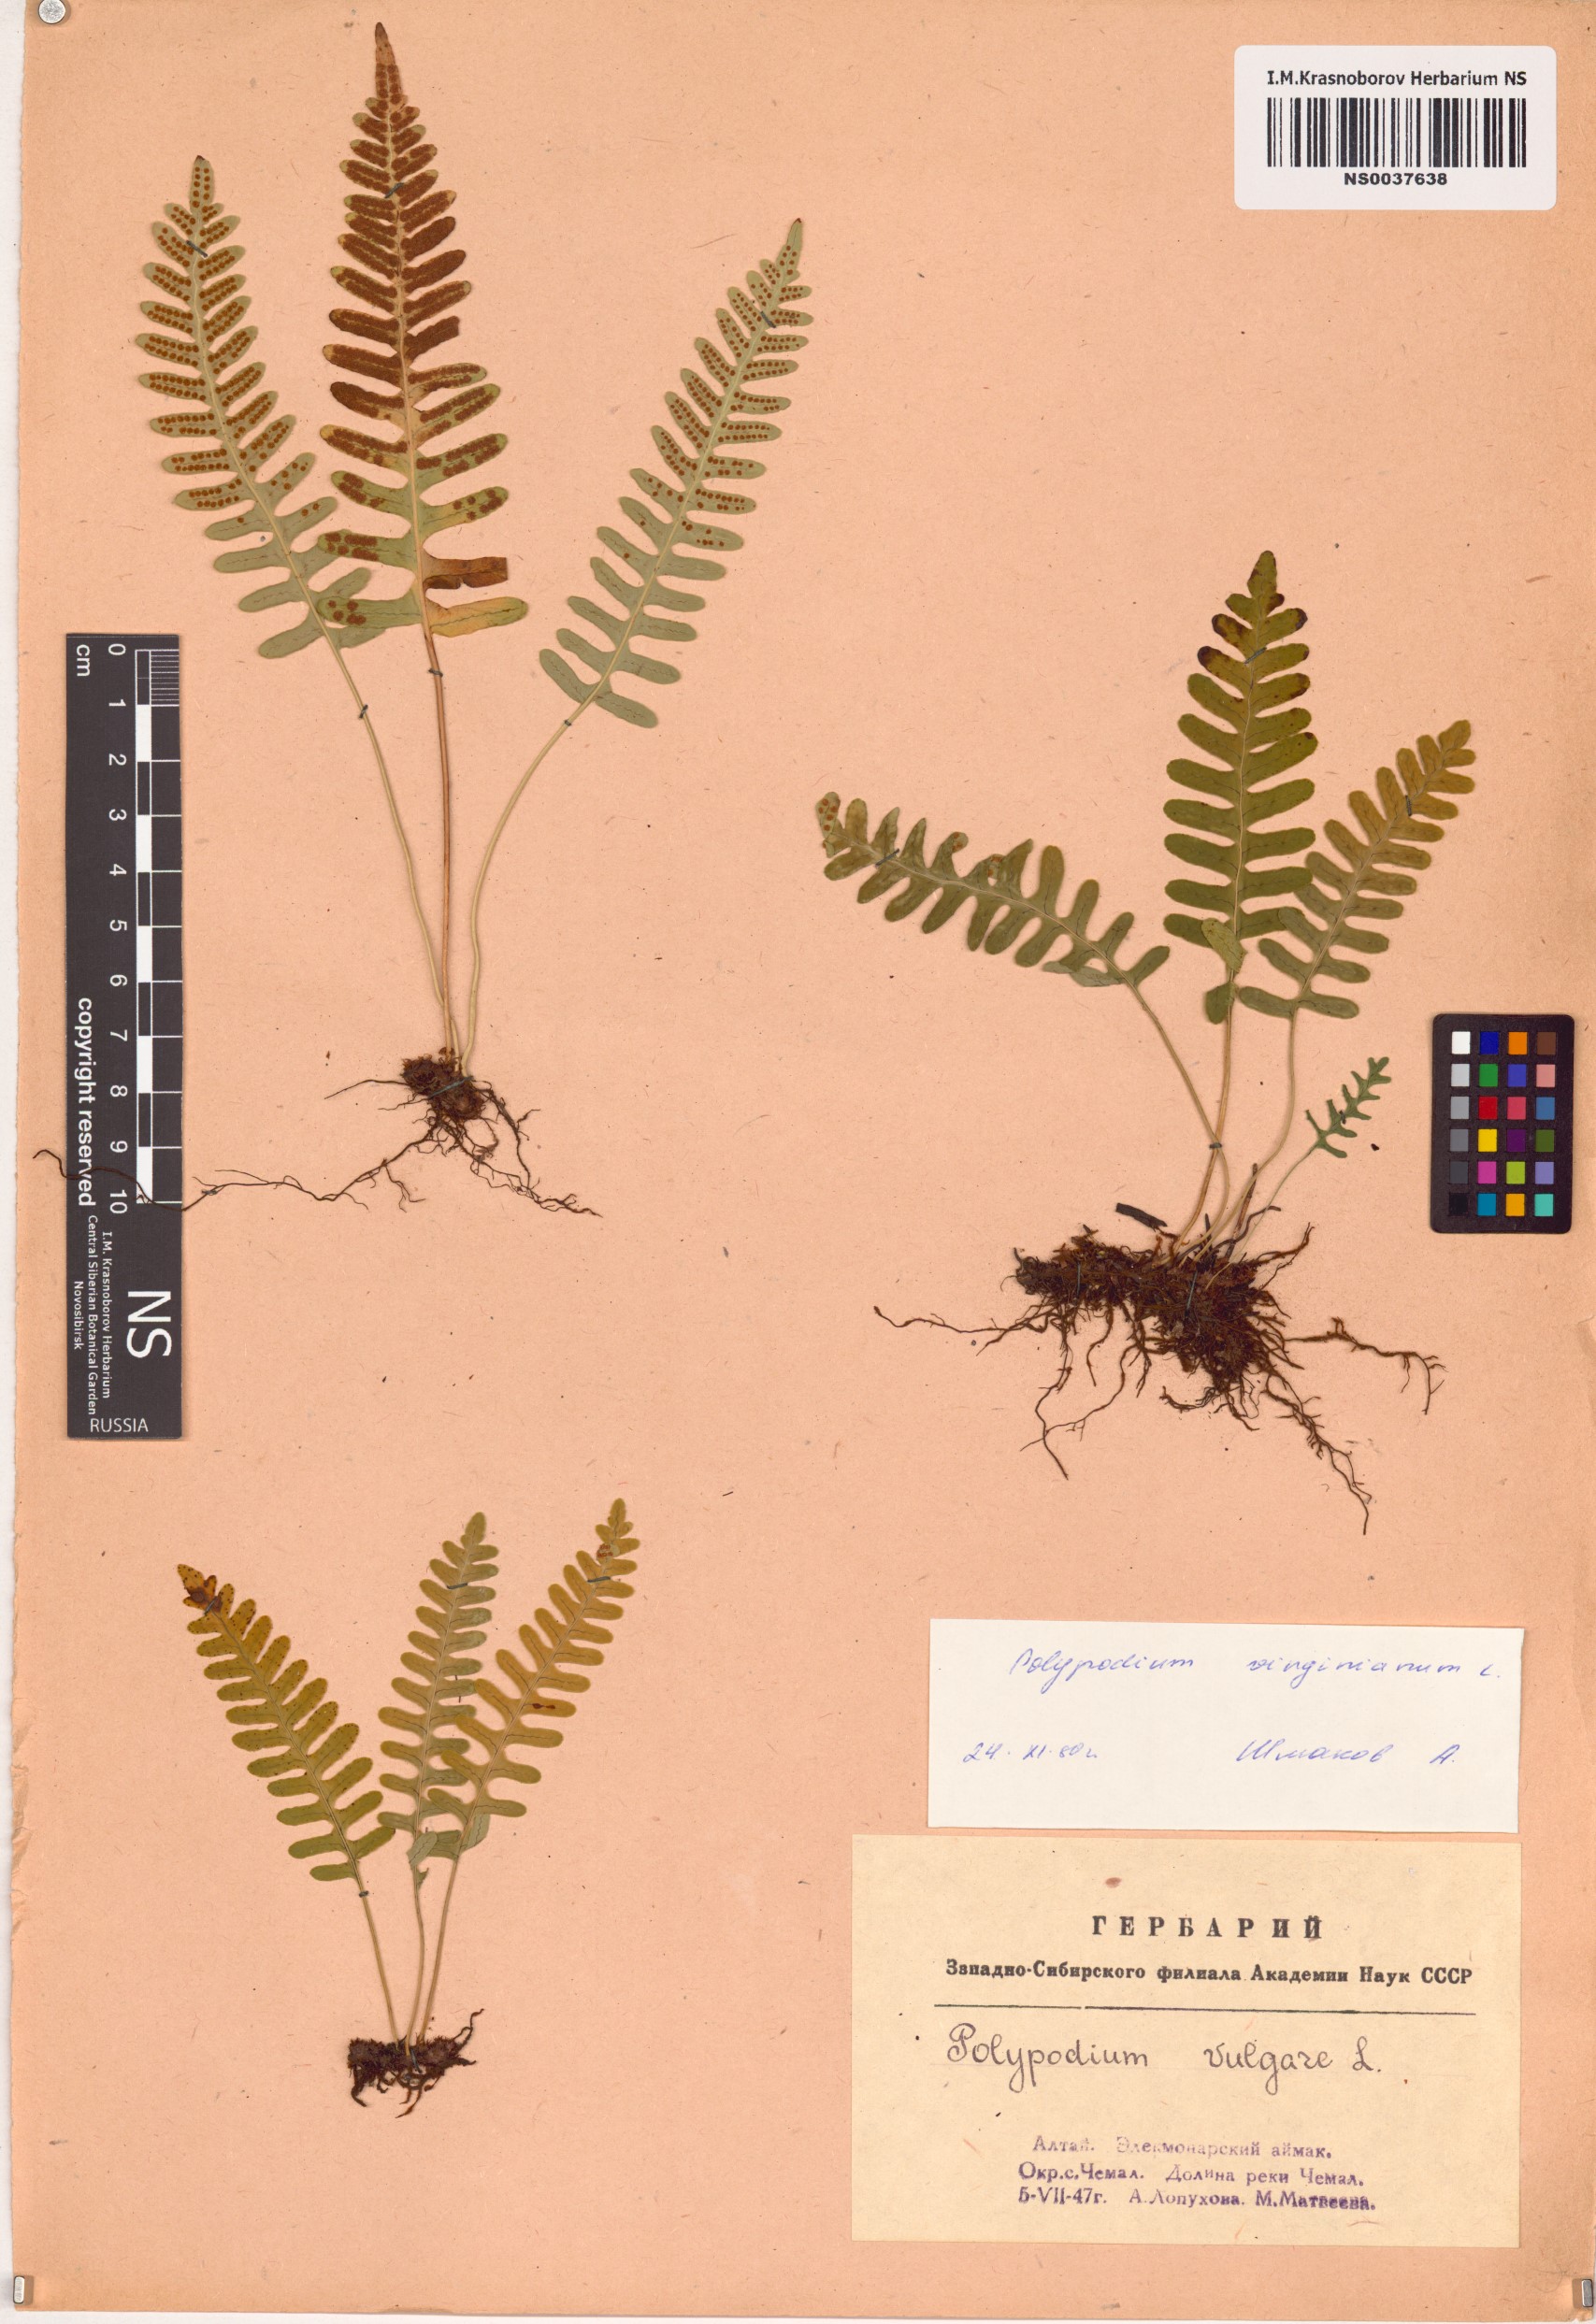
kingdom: Plantae
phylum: Tracheophyta
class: Polypodiopsida
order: Polypodiales
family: Polypodiaceae
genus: Polypodium
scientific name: Polypodium virginianum
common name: American wall fern
